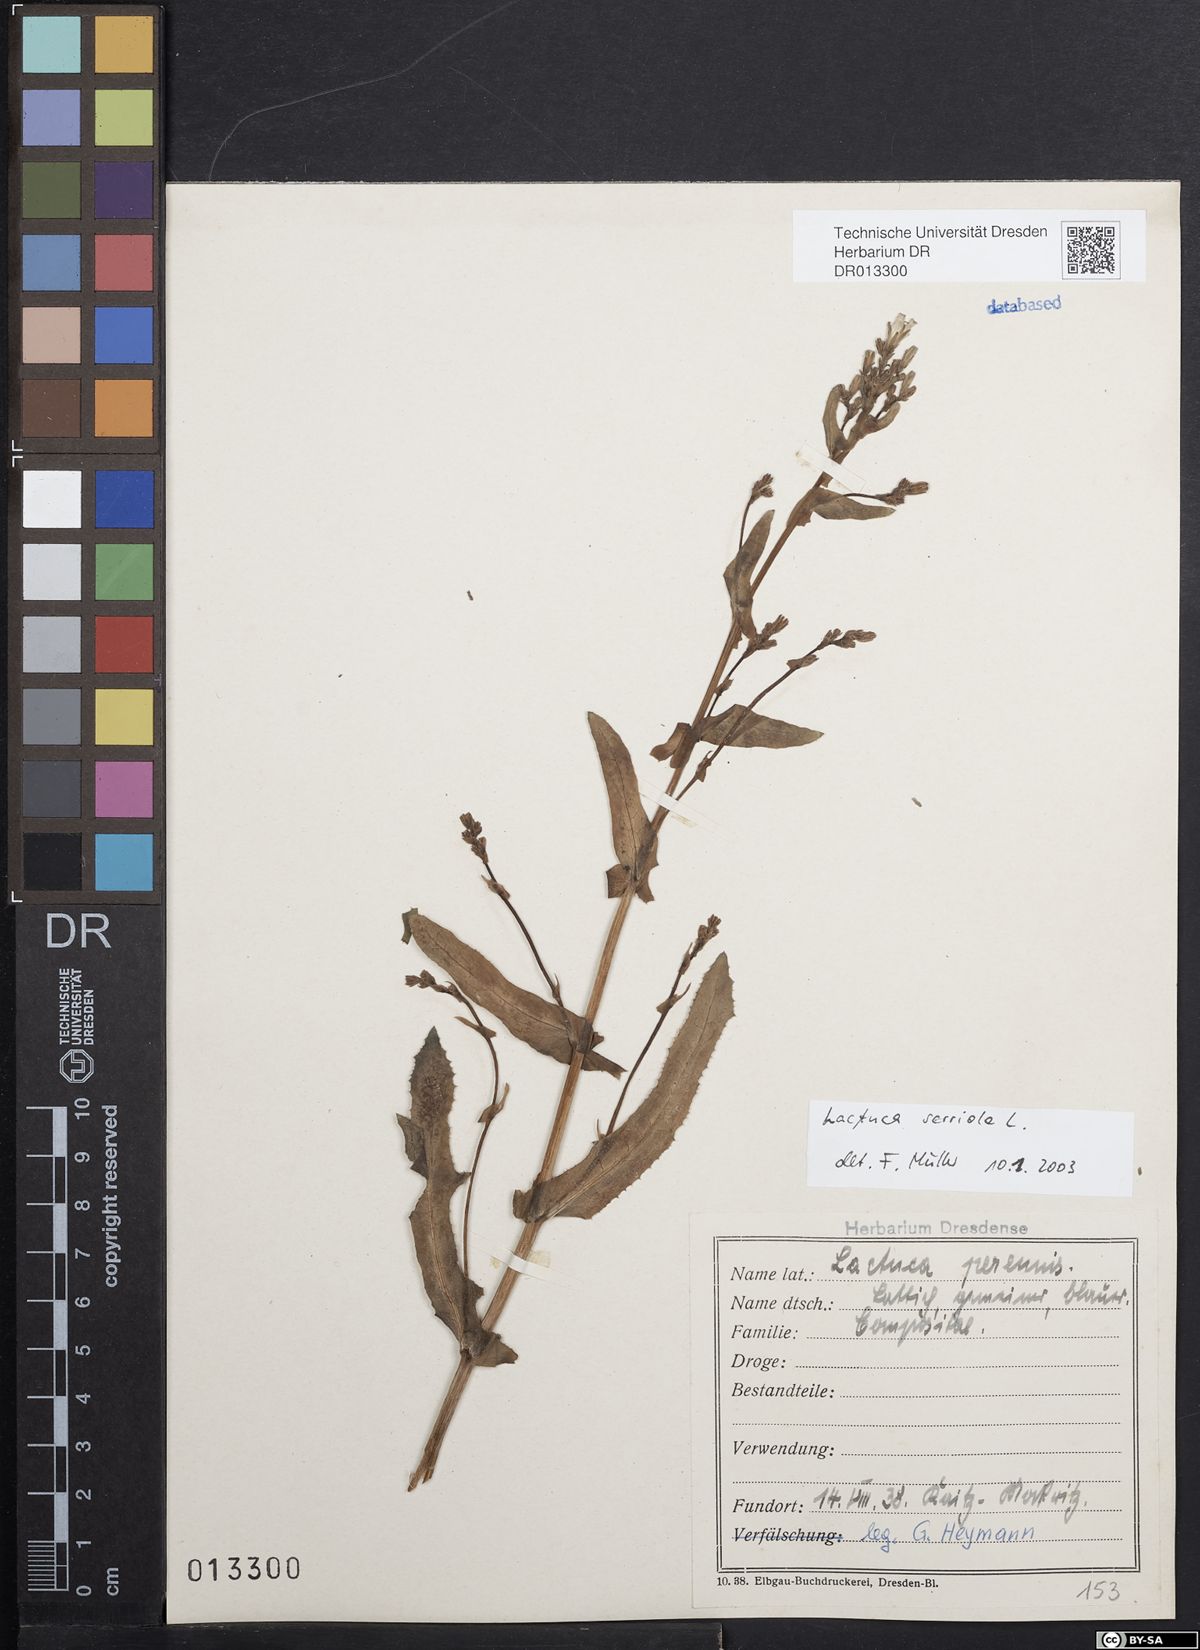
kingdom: Plantae
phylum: Tracheophyta
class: Magnoliopsida
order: Asterales
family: Asteraceae
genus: Lactuca
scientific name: Lactuca serriola
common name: Prickly lettuce
